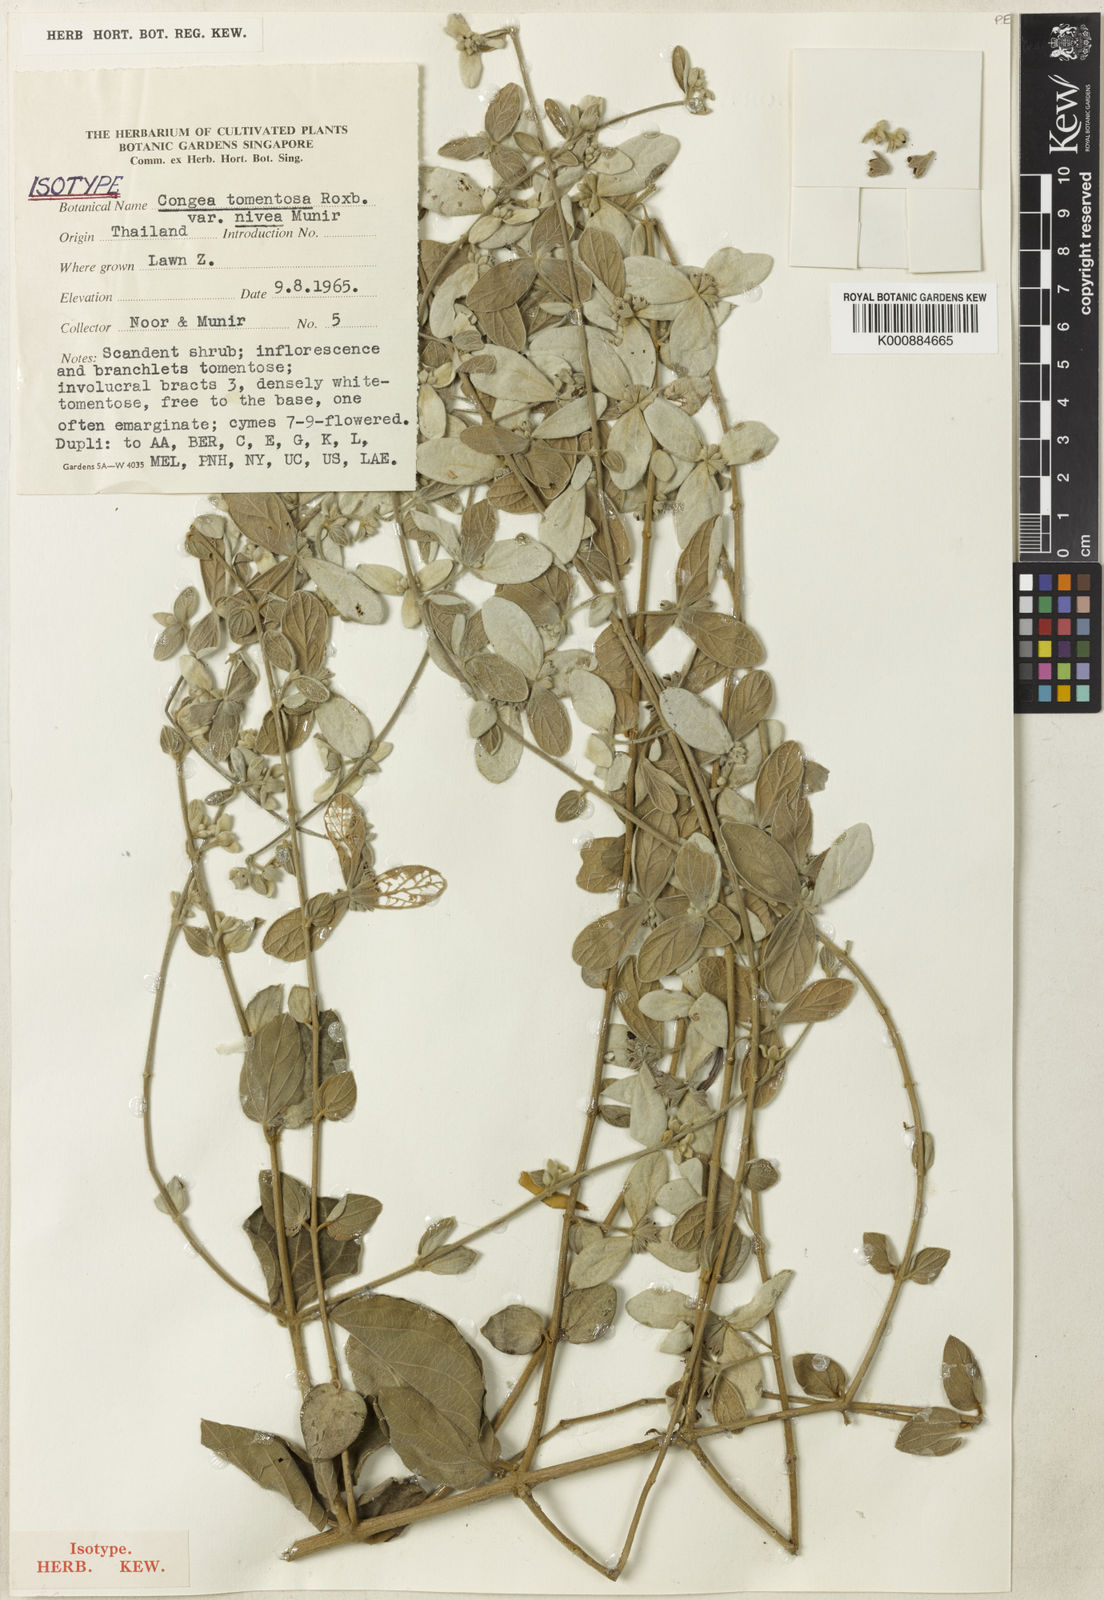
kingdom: Plantae
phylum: Tracheophyta
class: Magnoliopsida
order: Lamiales
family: Lamiaceae
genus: Congea
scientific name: Congea tomentosa
